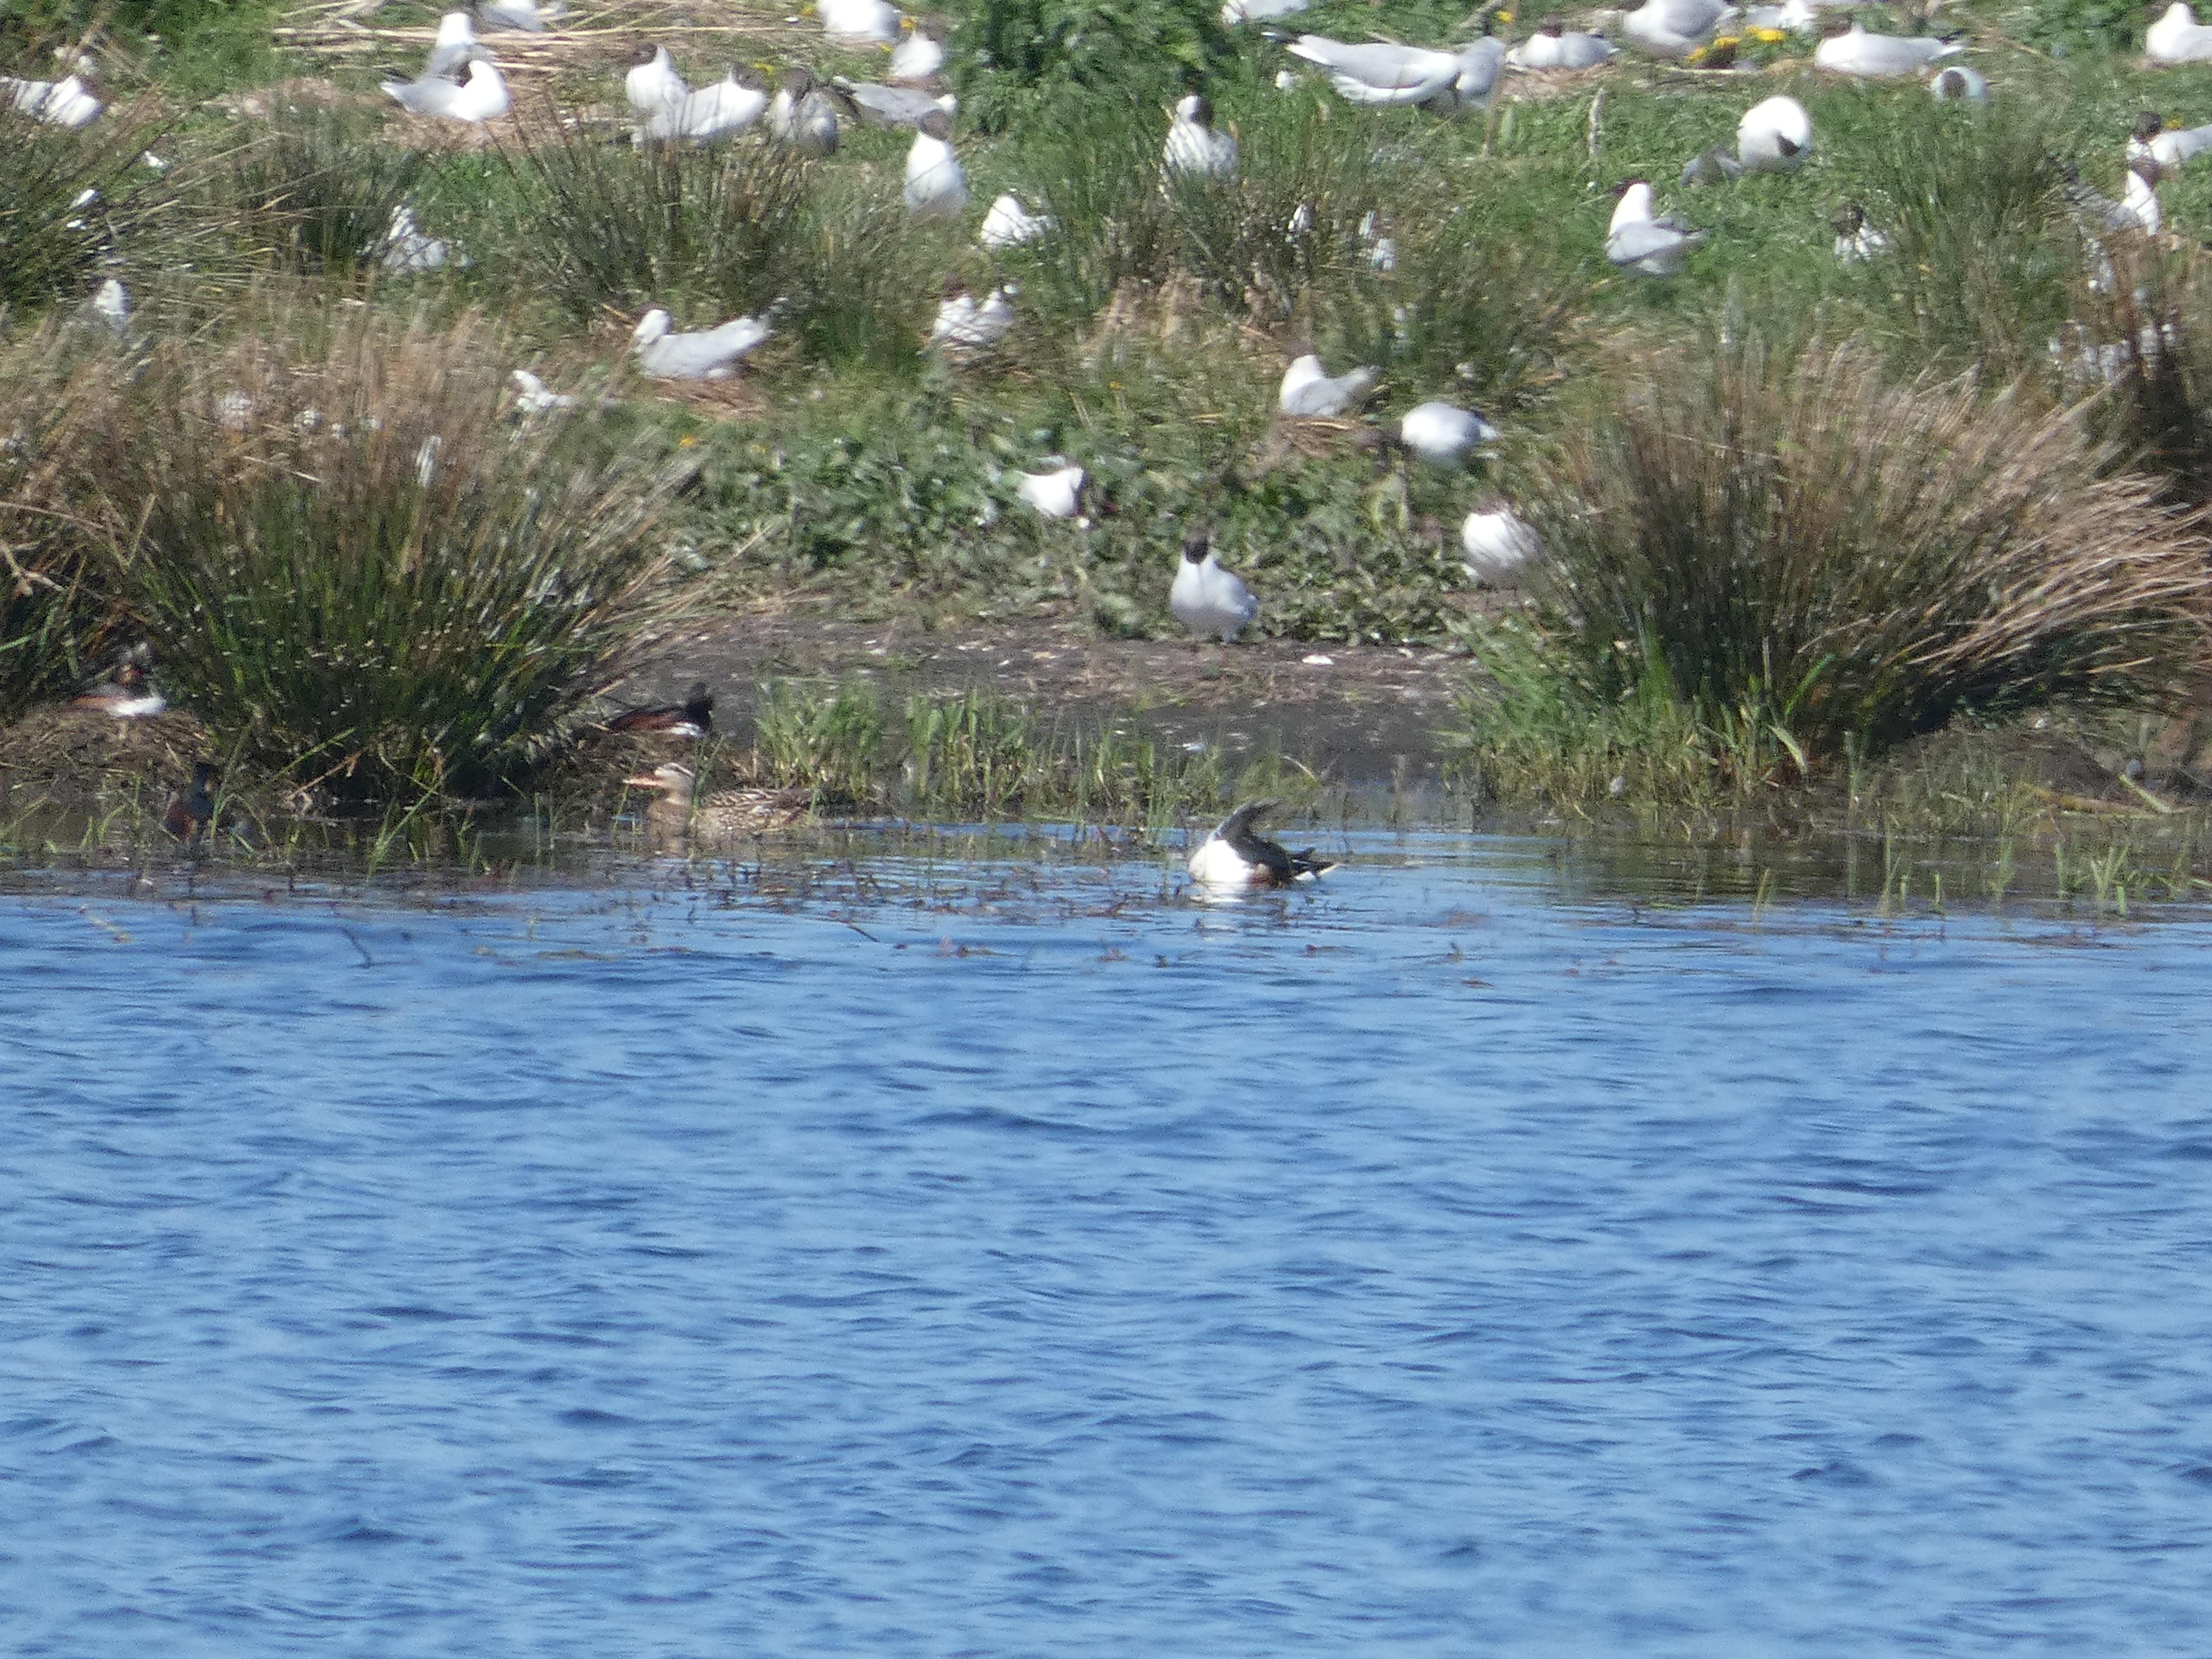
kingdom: Animalia
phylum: Chordata
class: Aves
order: Anseriformes
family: Anatidae
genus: Spatula
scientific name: Spatula clypeata
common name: Skeand
